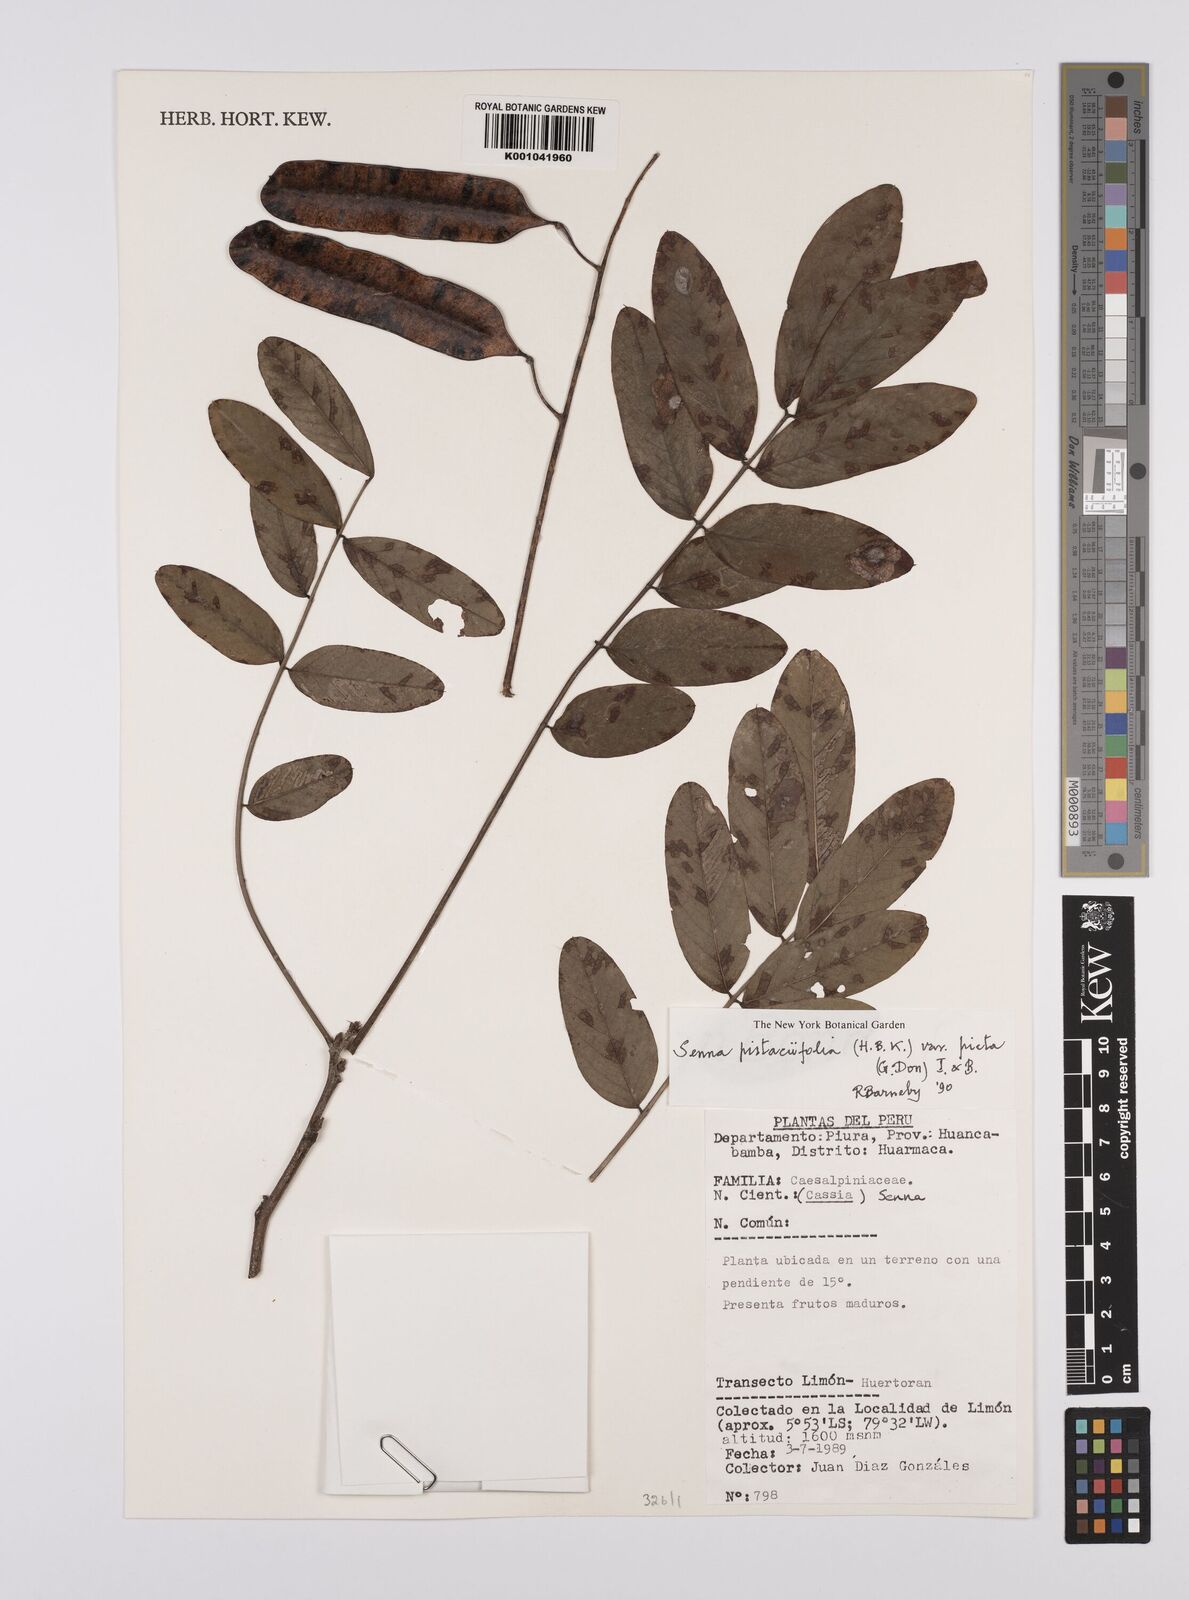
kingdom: Plantae
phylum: Tracheophyta
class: Magnoliopsida
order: Fabales
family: Fabaceae
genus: Senna
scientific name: Senna pistaciifolia
